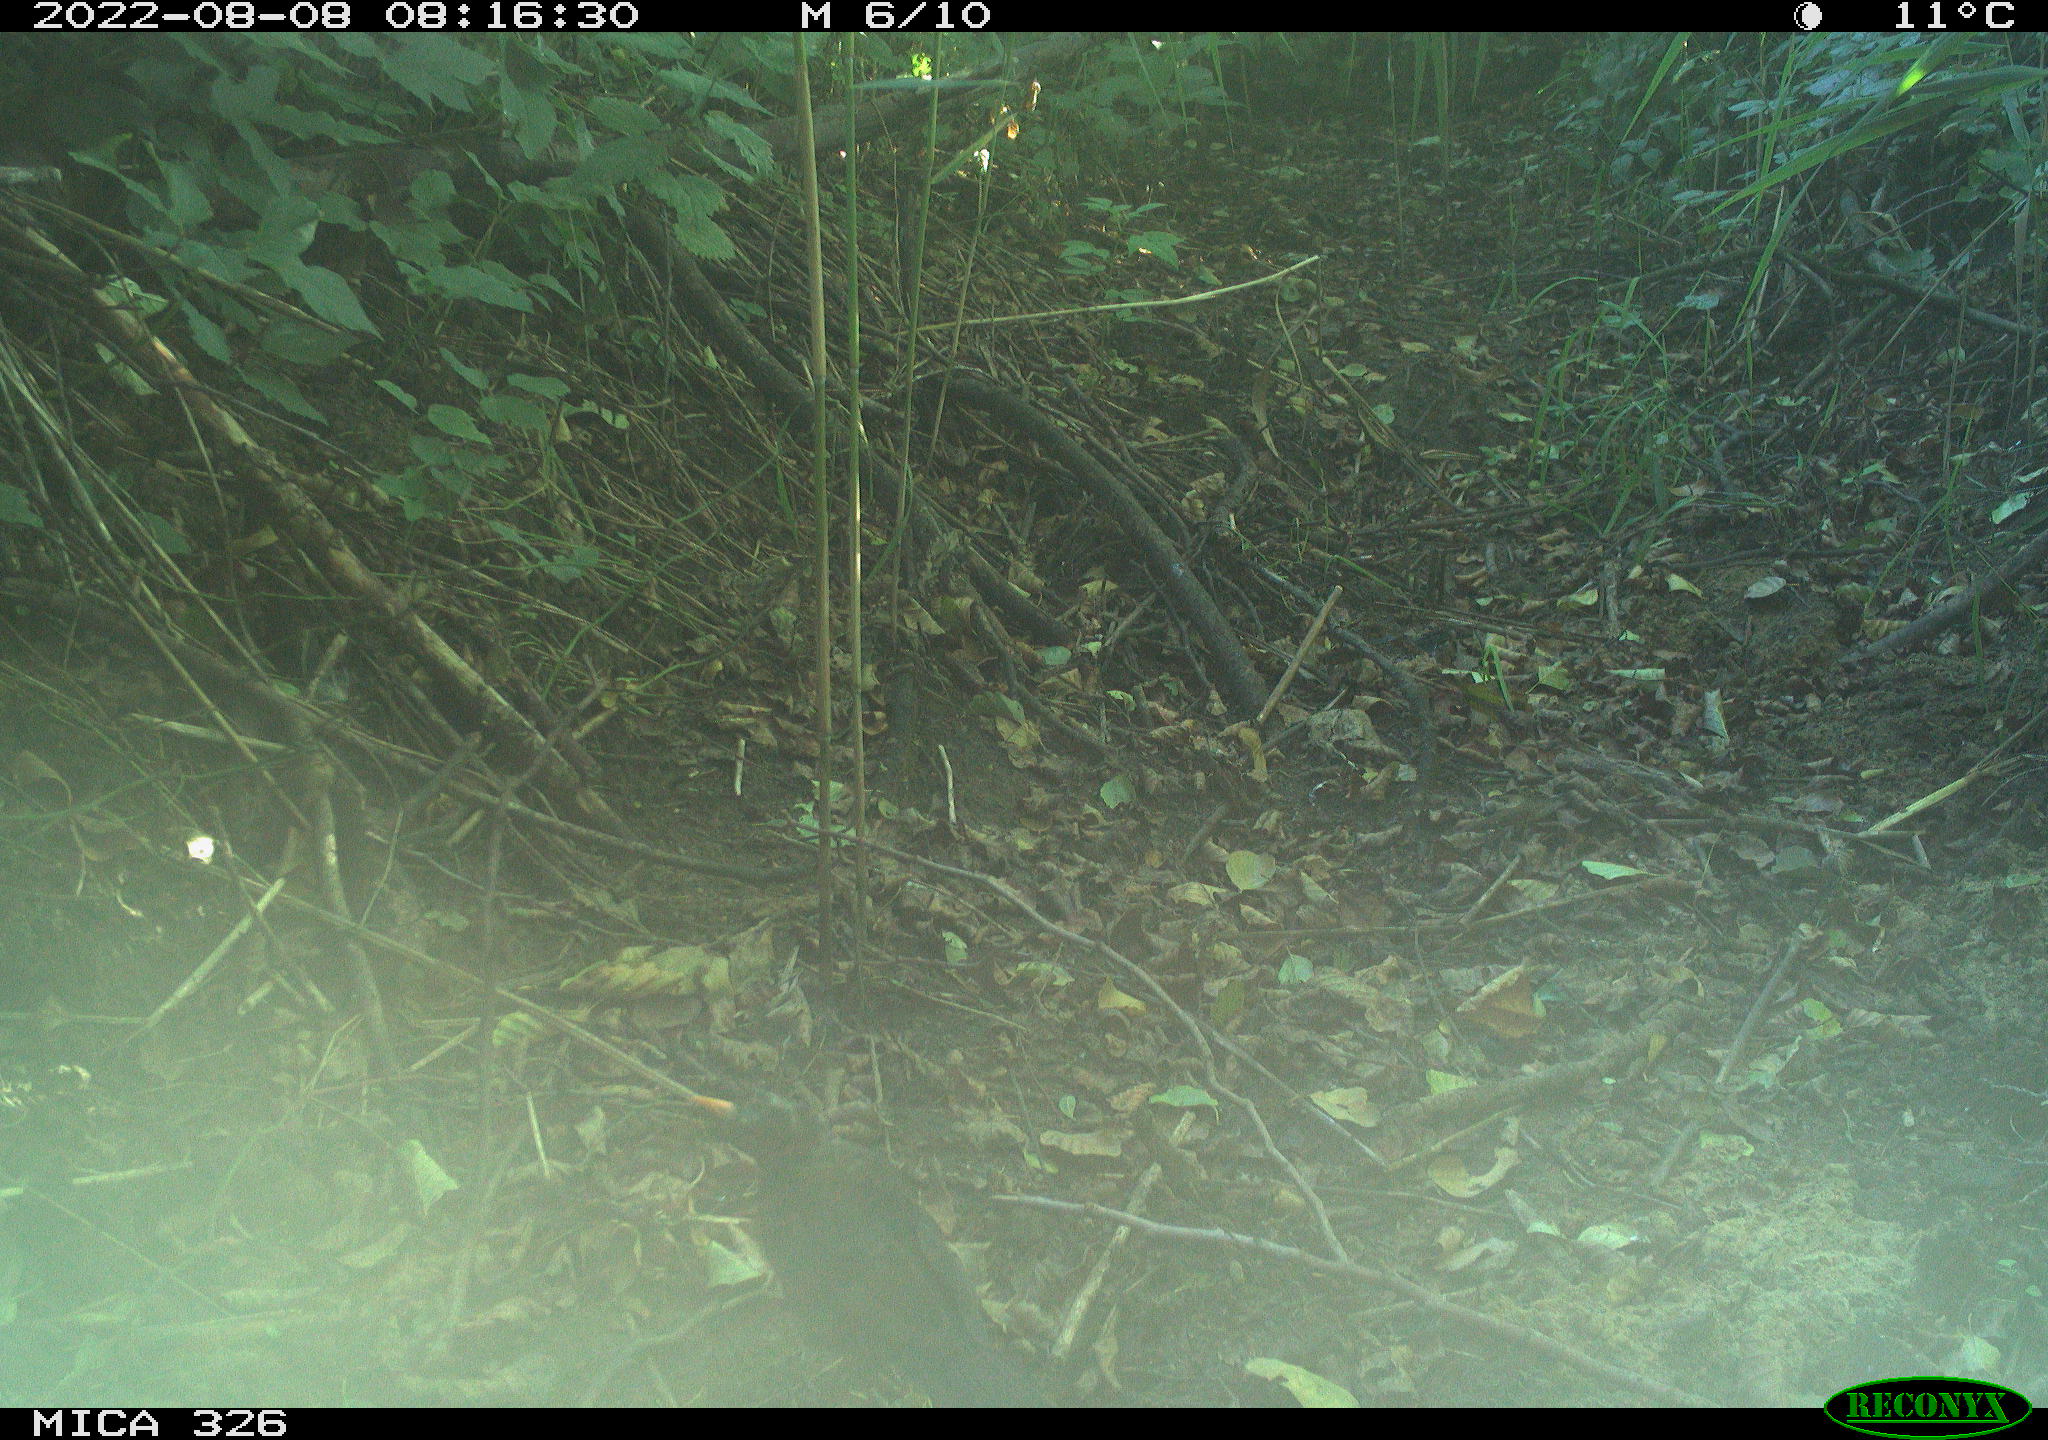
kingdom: Animalia
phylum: Chordata
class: Aves
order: Passeriformes
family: Turdidae
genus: Turdus
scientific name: Turdus merula
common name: Common blackbird
